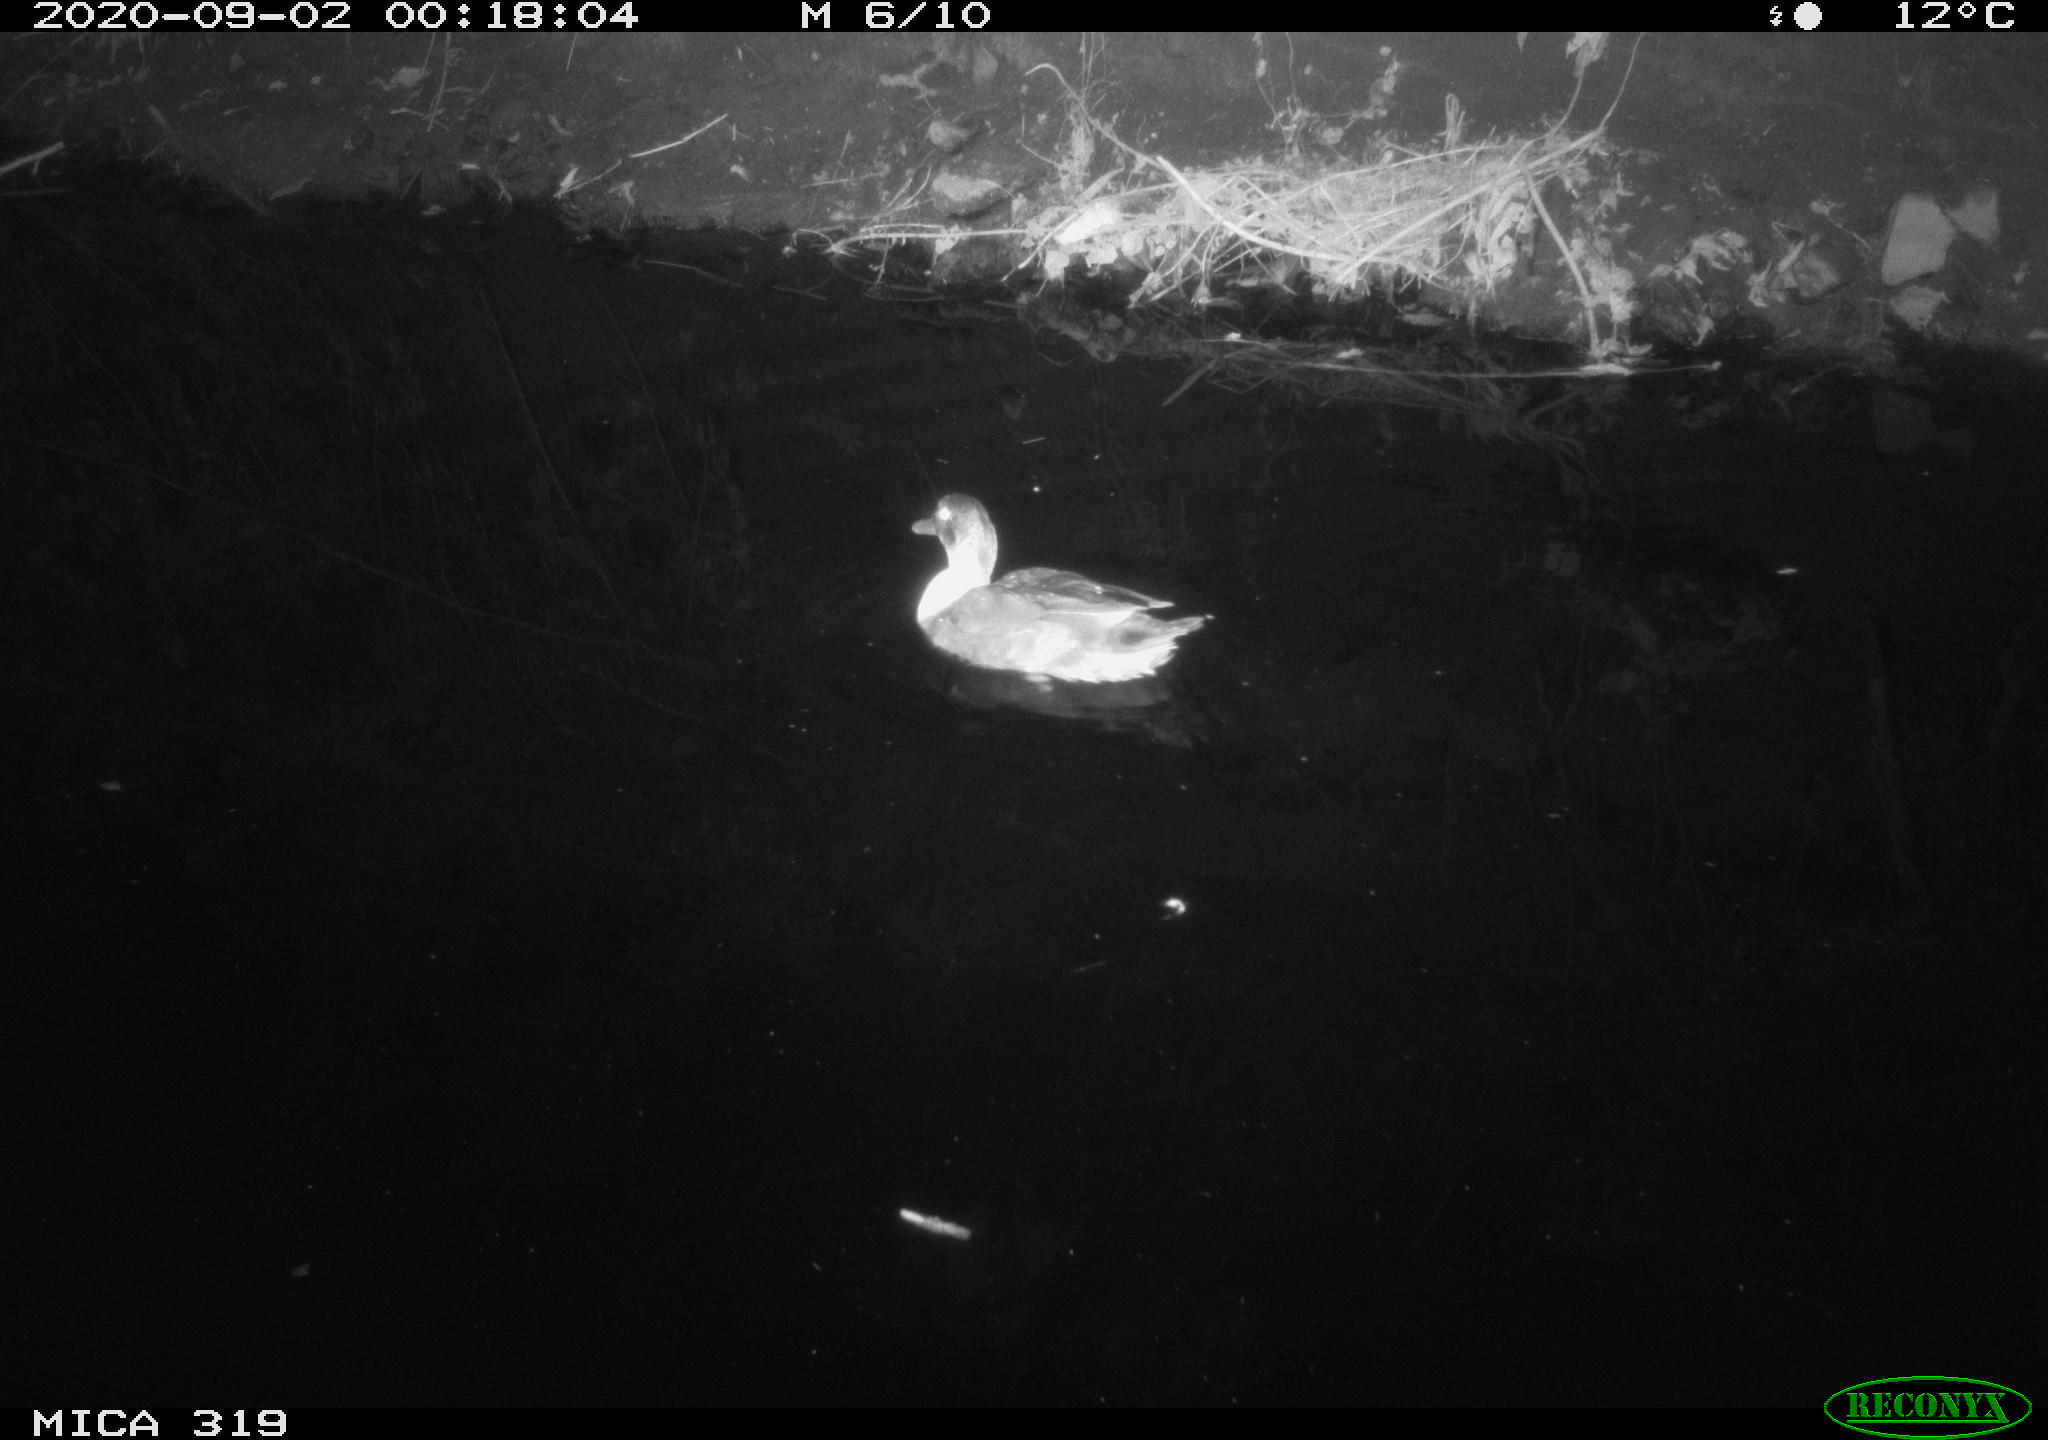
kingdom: Animalia
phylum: Chordata
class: Aves
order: Anseriformes
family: Anatidae
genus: Anas
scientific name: Anas platyrhynchos
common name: Mallard
